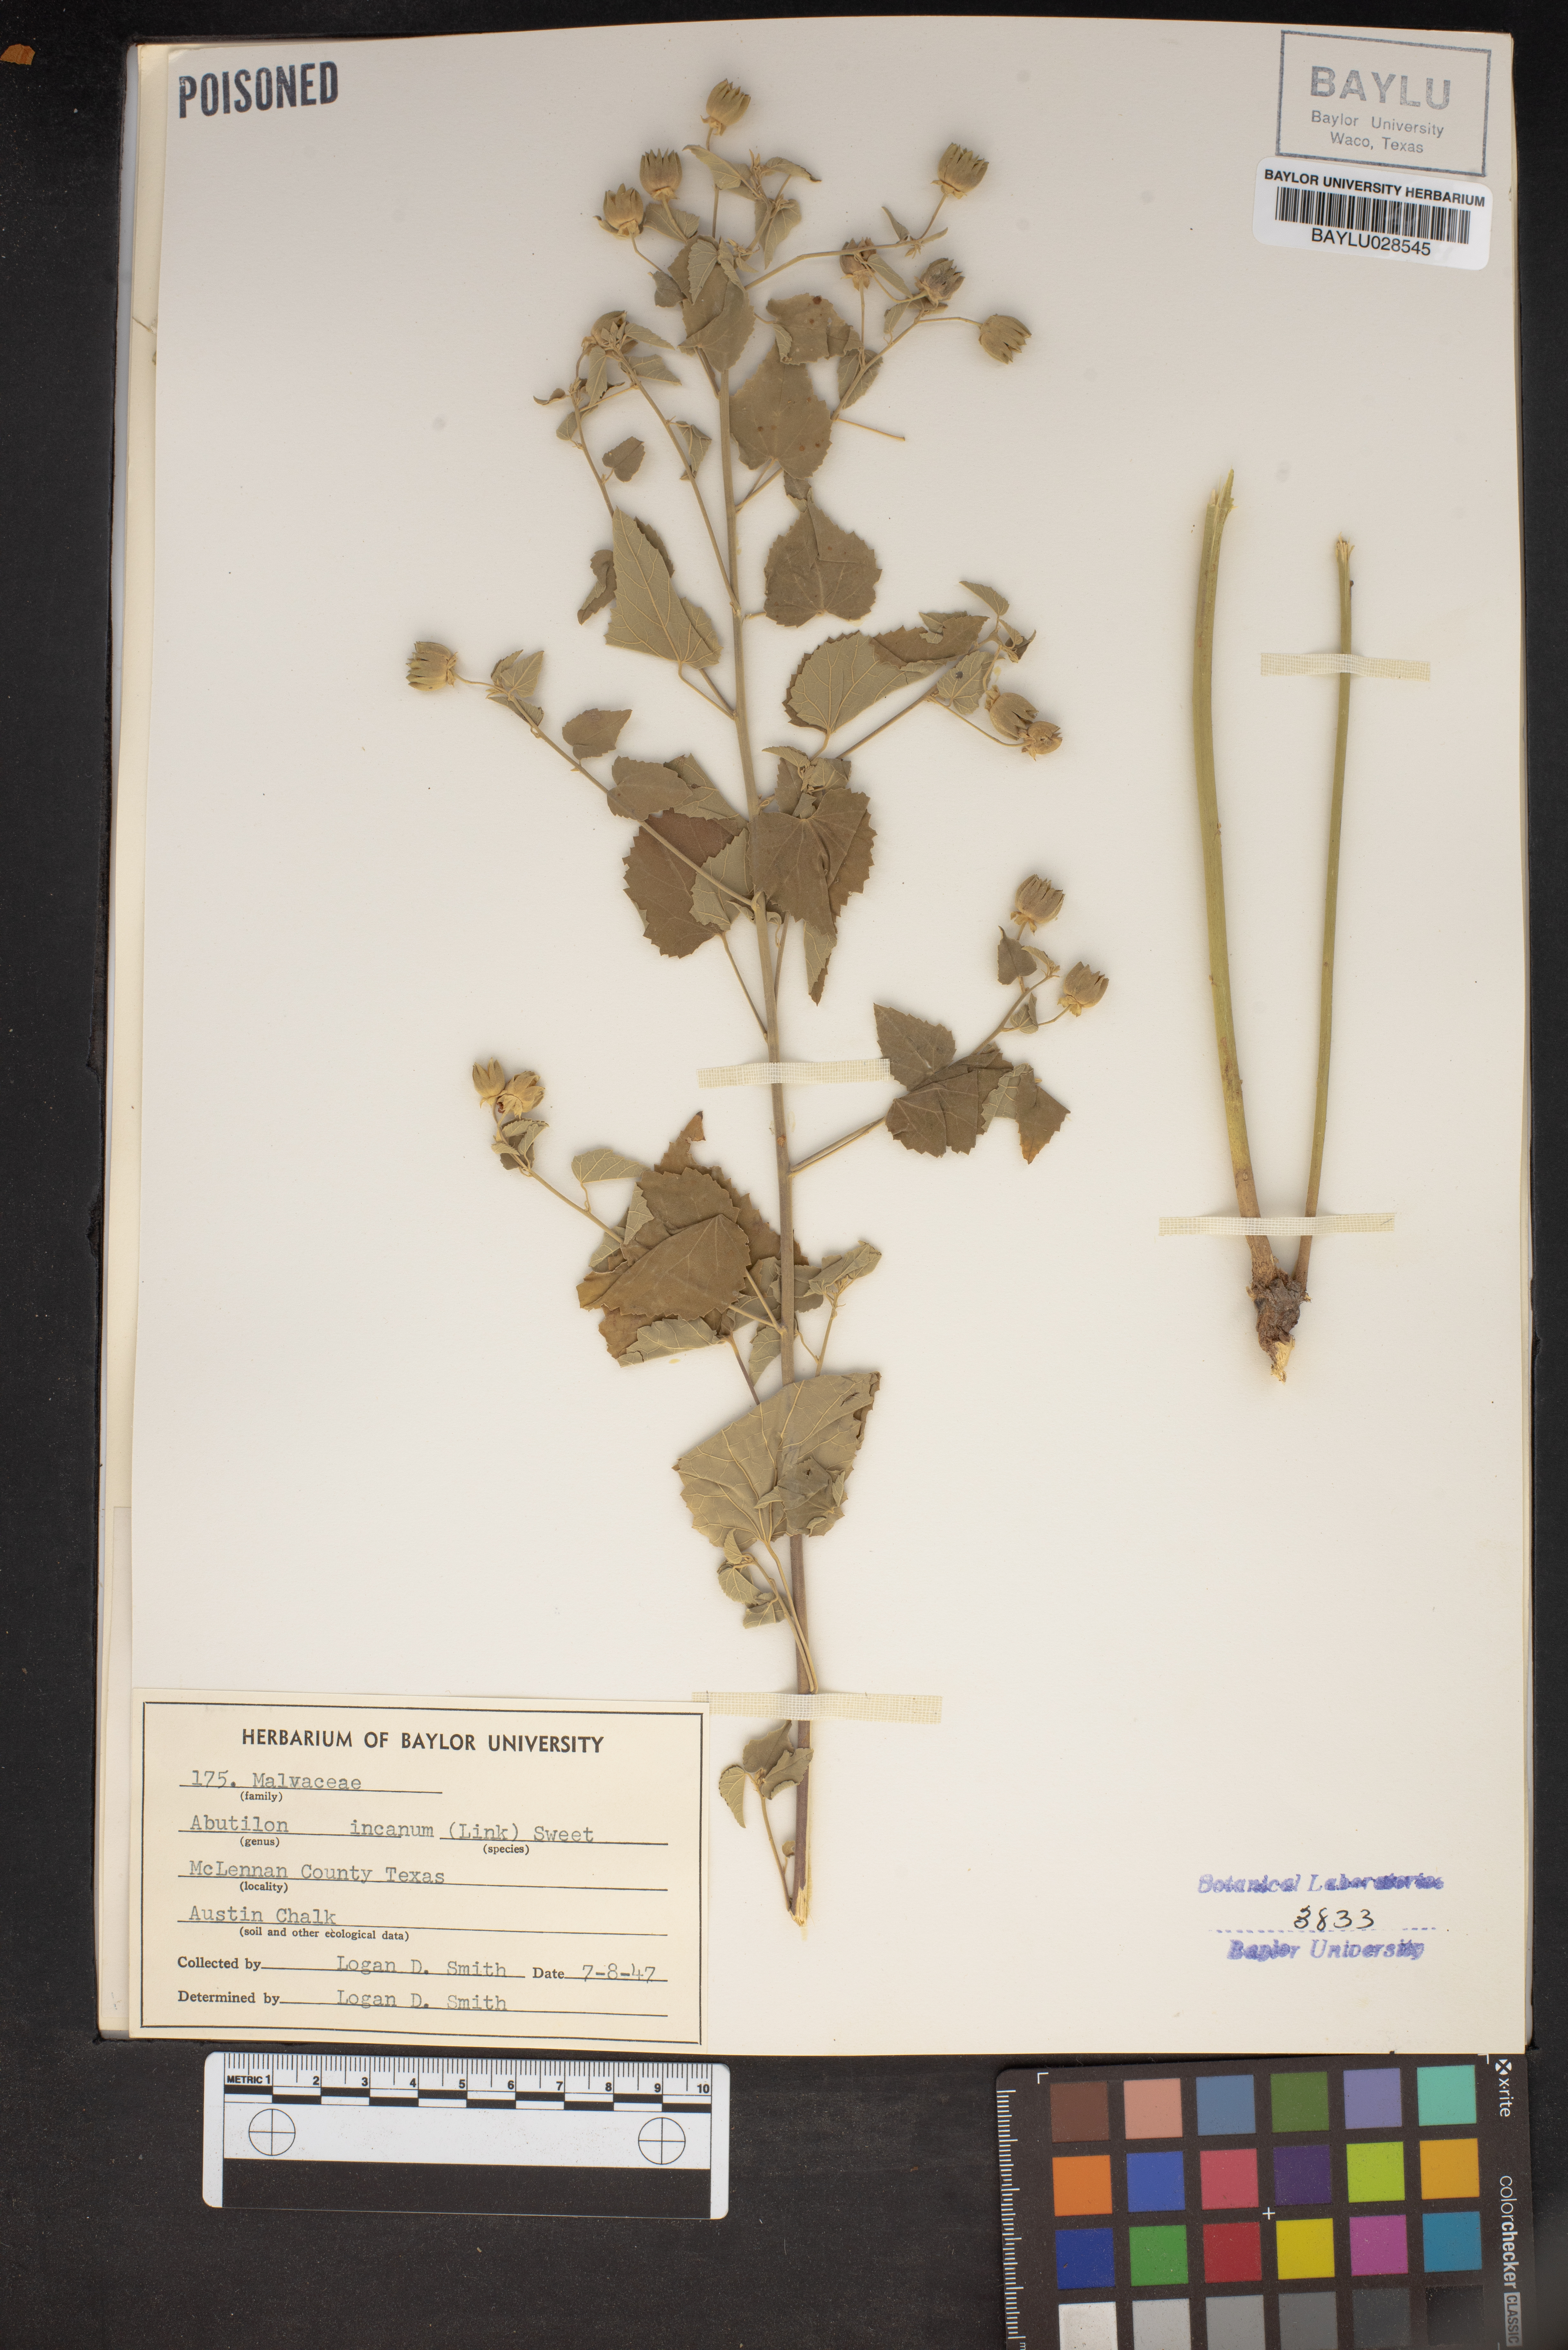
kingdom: Plantae
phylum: Tracheophyta
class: Magnoliopsida
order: Malvales
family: Malvaceae
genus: Abutilon
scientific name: Abutilon incanum
